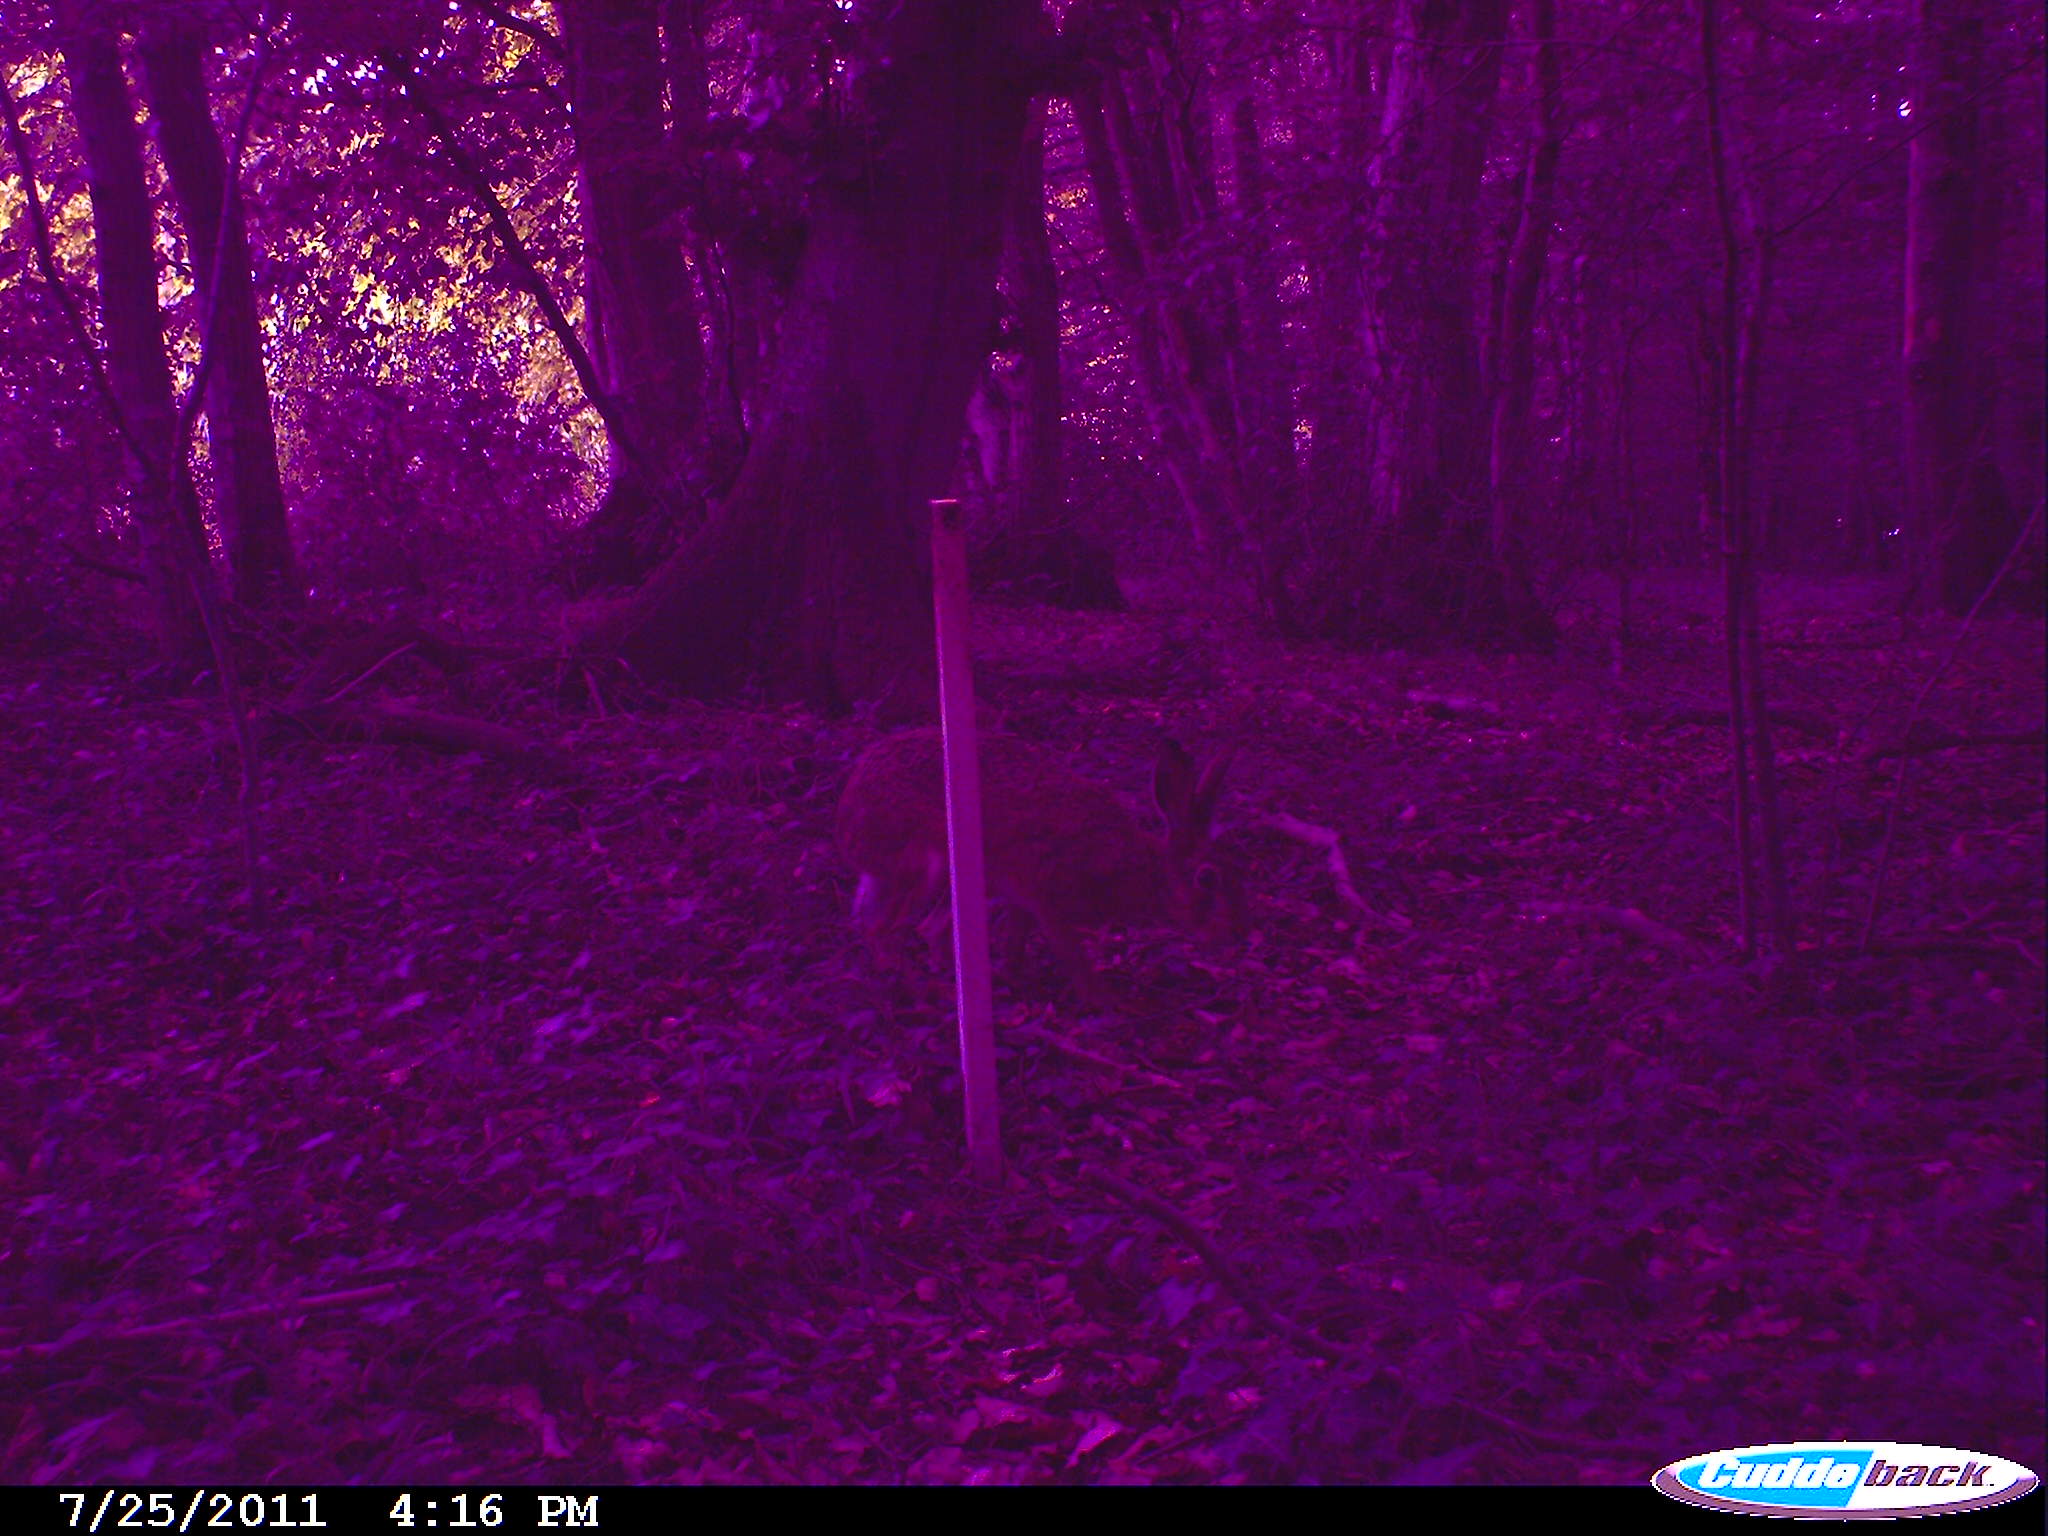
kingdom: Animalia
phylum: Chordata
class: Mammalia
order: Lagomorpha
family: Leporidae
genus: Lepus
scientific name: Lepus europaeus
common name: European hare
